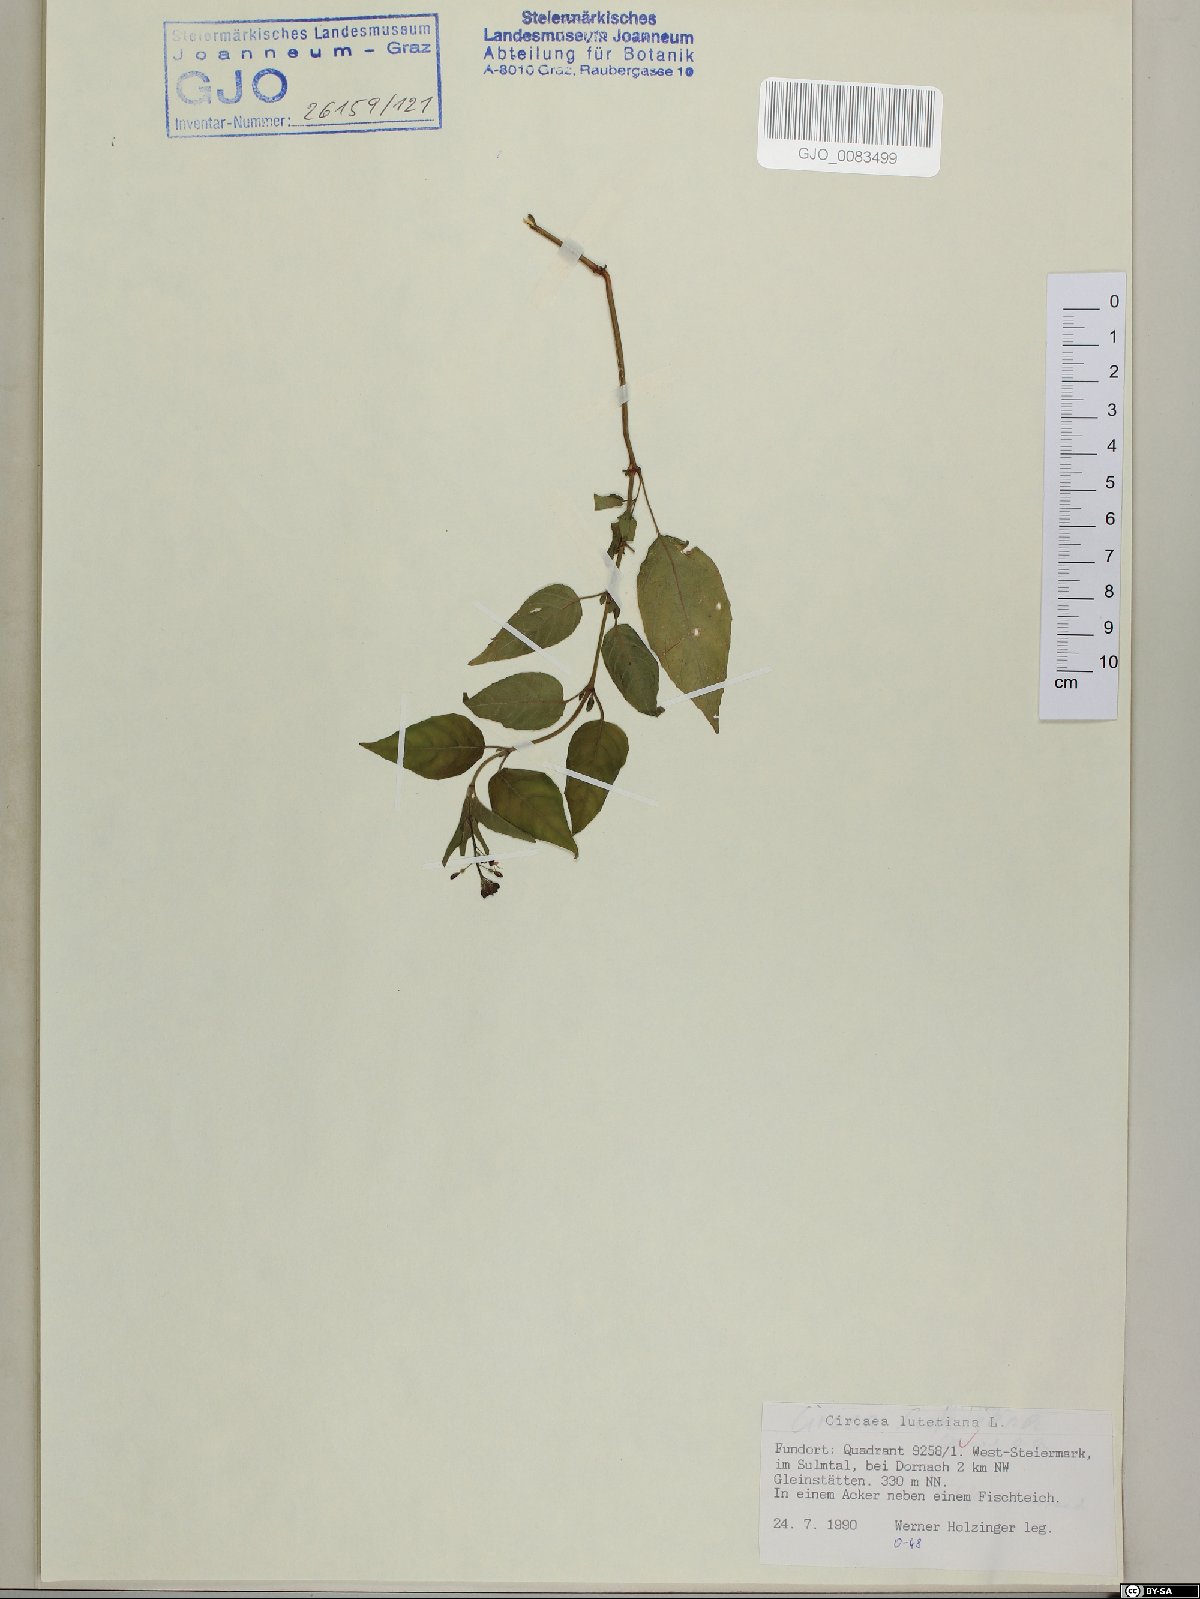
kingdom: Plantae
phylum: Tracheophyta
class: Magnoliopsida
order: Myrtales
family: Onagraceae
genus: Circaea
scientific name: Circaea lutetiana
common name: Enchanter's-nightshade
